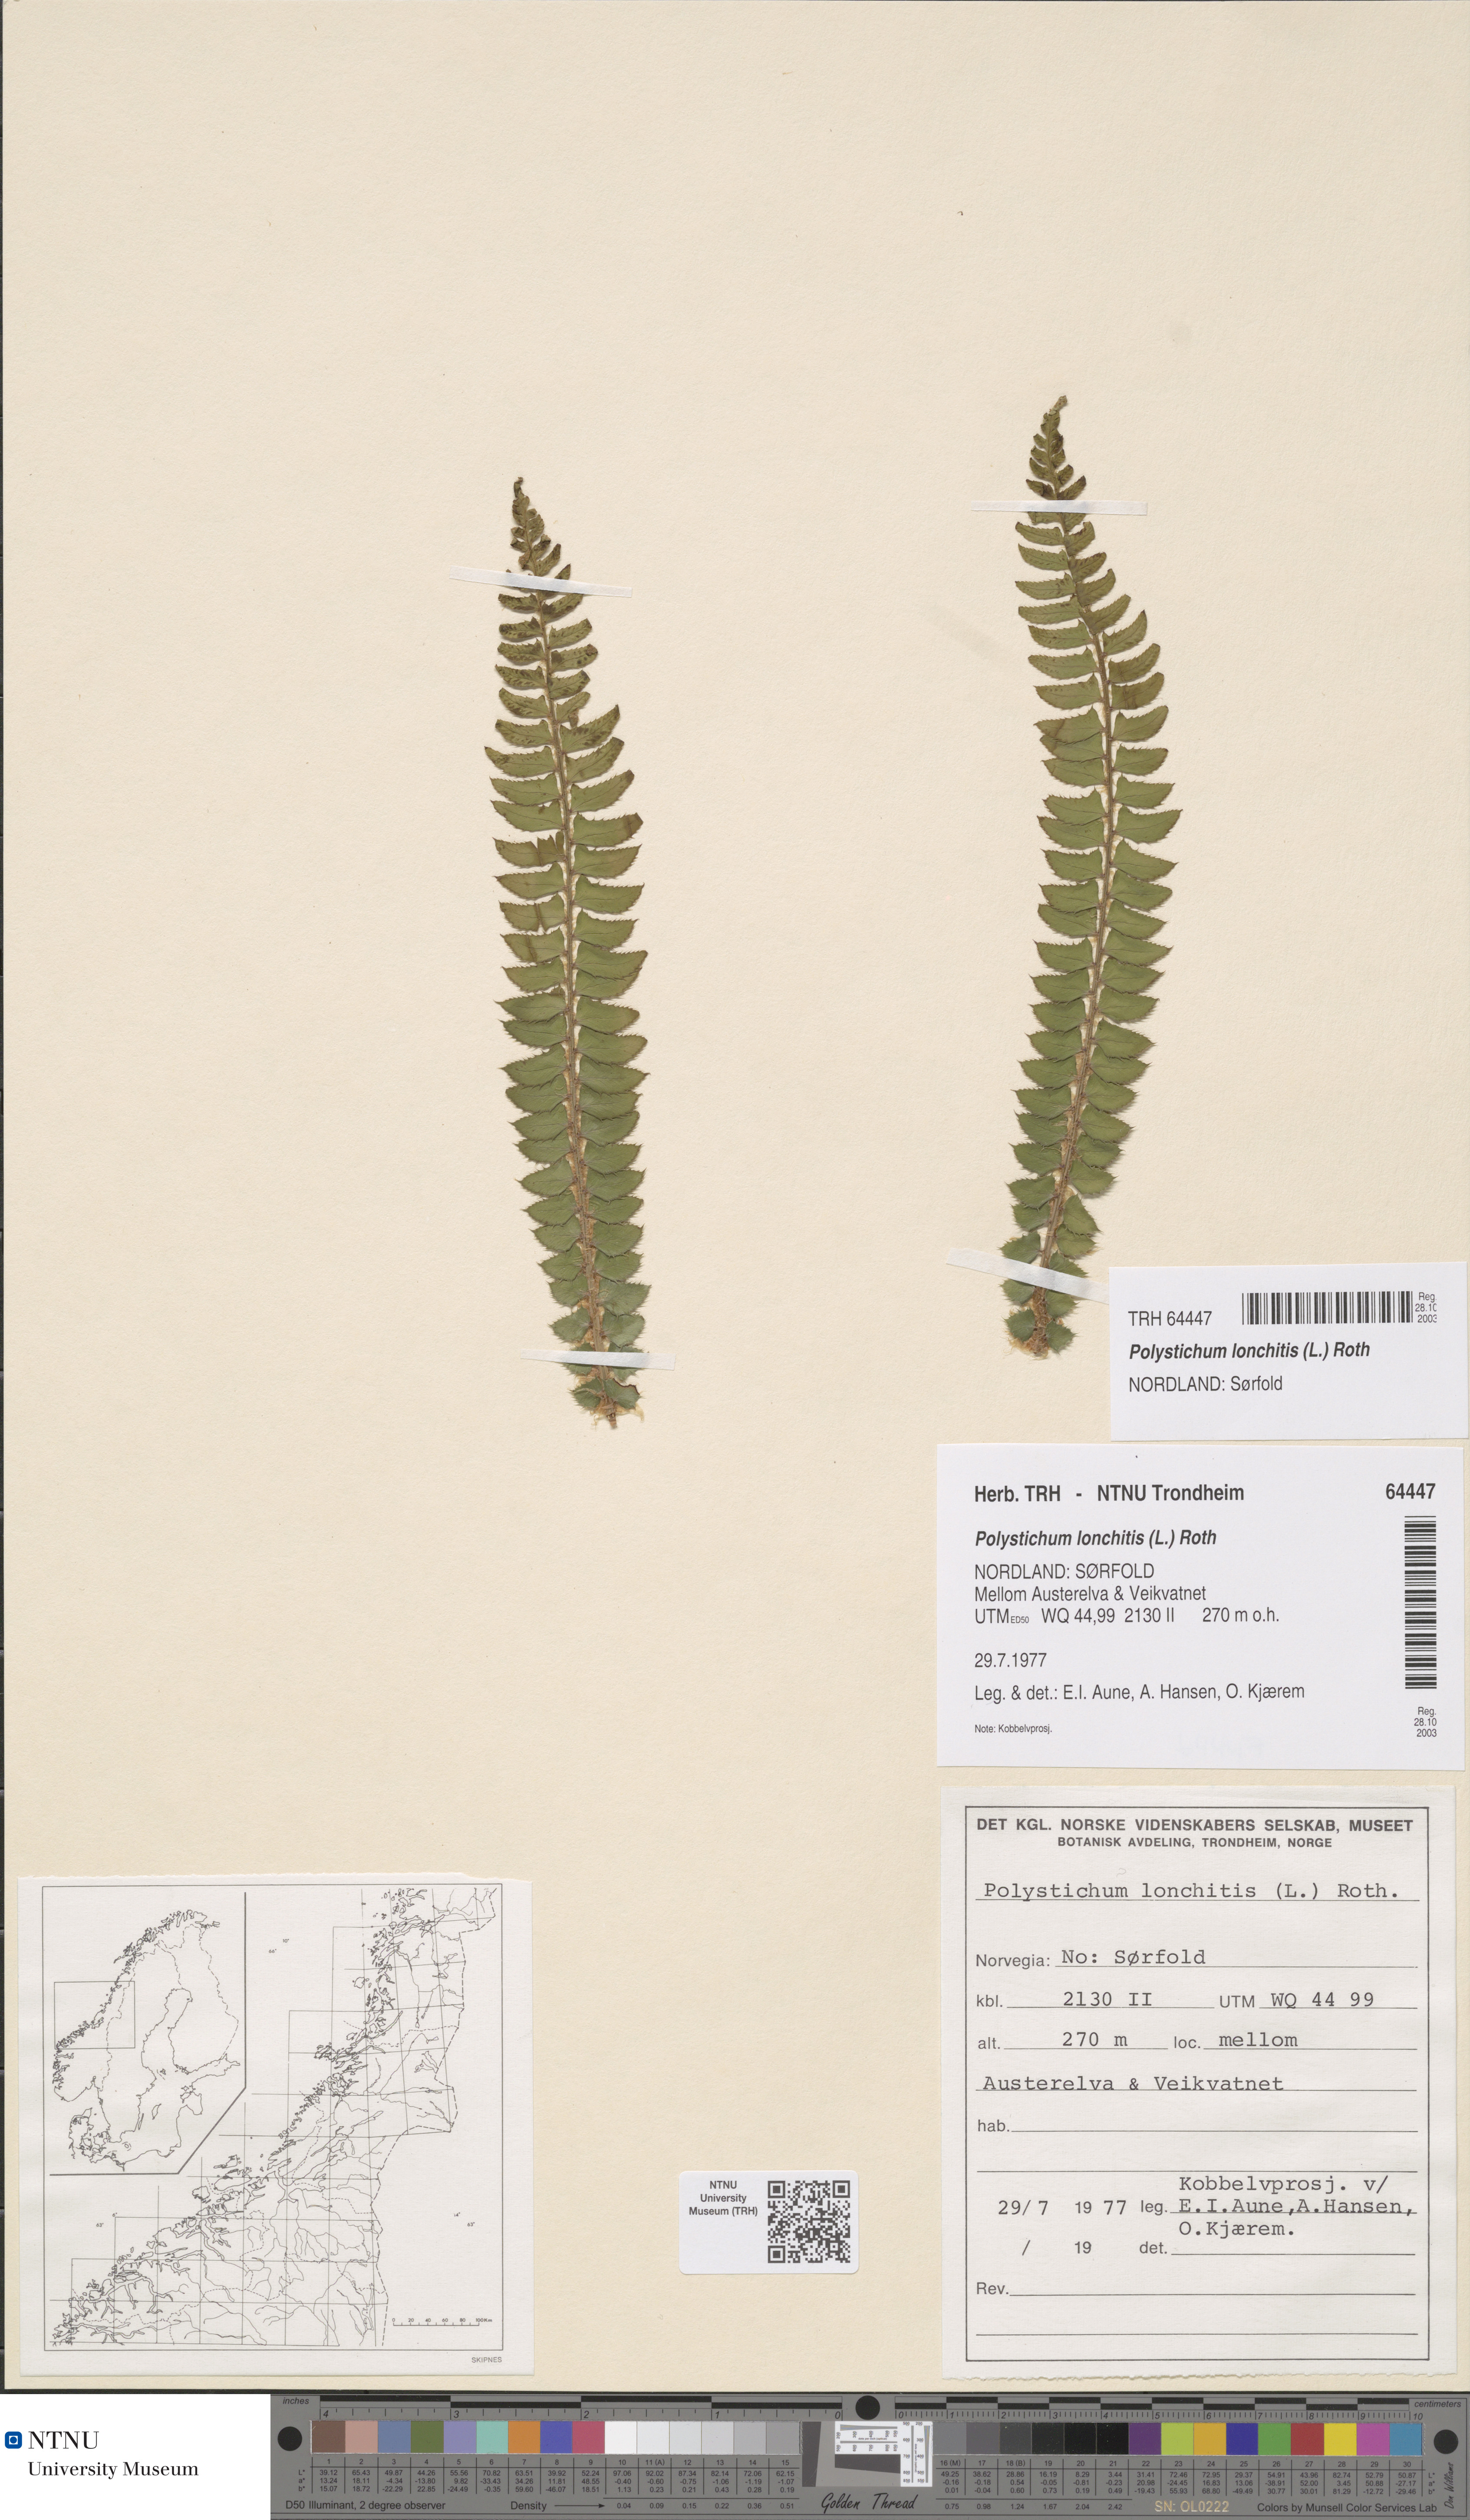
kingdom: Plantae
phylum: Tracheophyta
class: Polypodiopsida
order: Polypodiales
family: Dryopteridaceae
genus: Polystichum
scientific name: Polystichum lonchitis
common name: Holly fern
